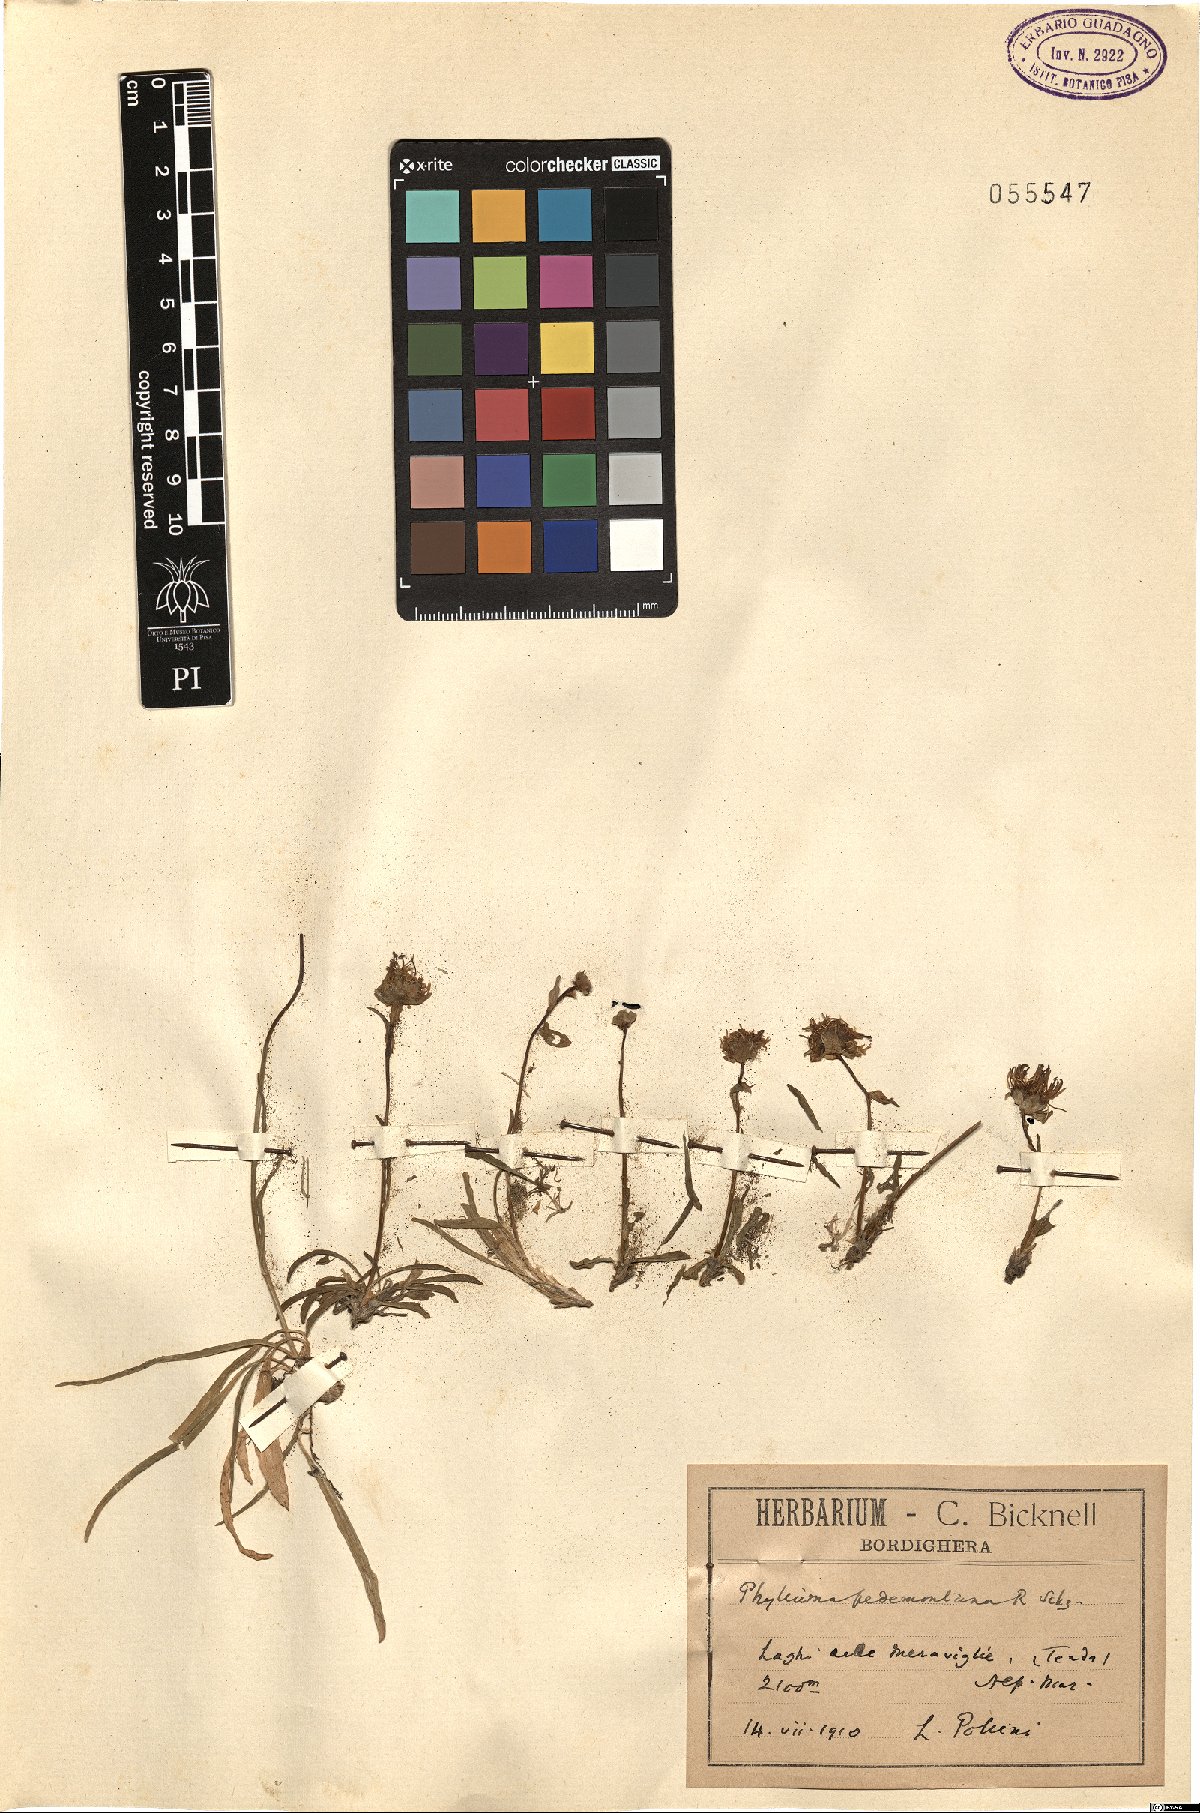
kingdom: Plantae
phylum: Tracheophyta
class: Magnoliopsida
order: Asterales
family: Campanulaceae
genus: Phyteuma
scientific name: Phyteuma globulariifolium
